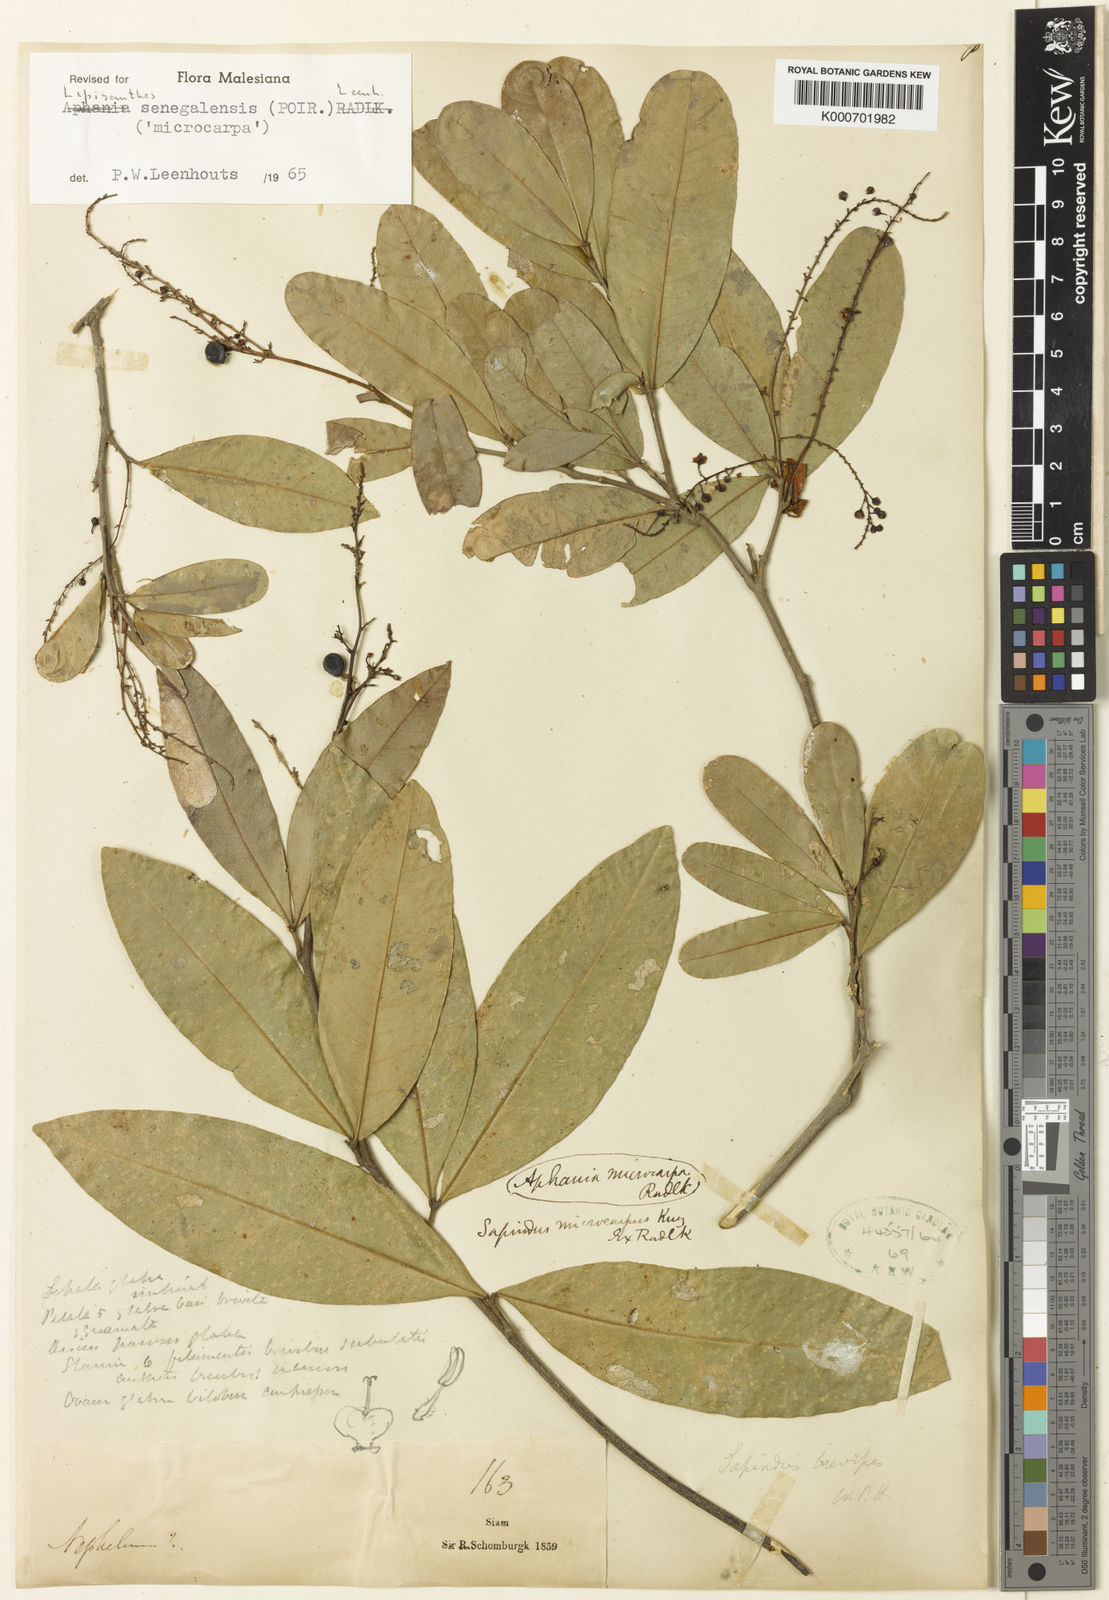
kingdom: Plantae
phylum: Tracheophyta
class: Magnoliopsida
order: Sapindales
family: Sapindaceae
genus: Lepisanthes
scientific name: Lepisanthes senegalensis
